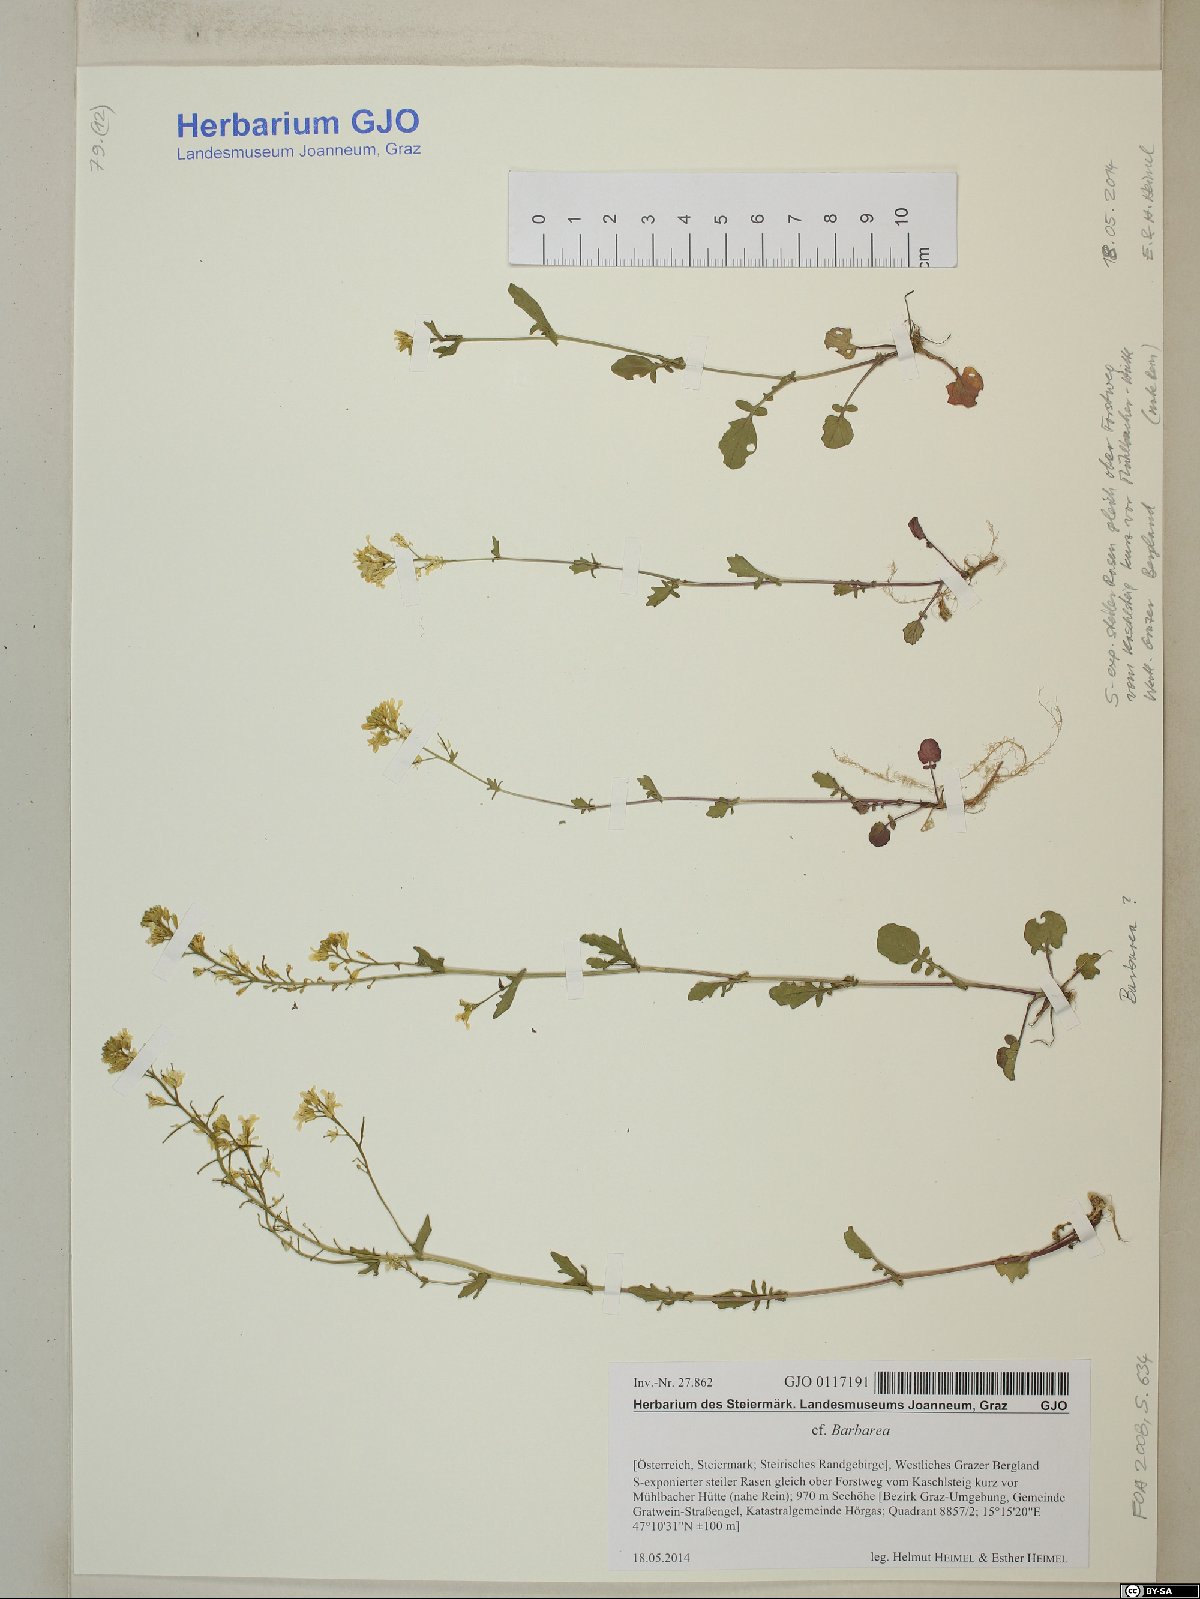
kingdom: Plantae
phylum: Tracheophyta
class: Magnoliopsida
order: Brassicales
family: Brassicaceae
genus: Barbarea
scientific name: Barbarea
